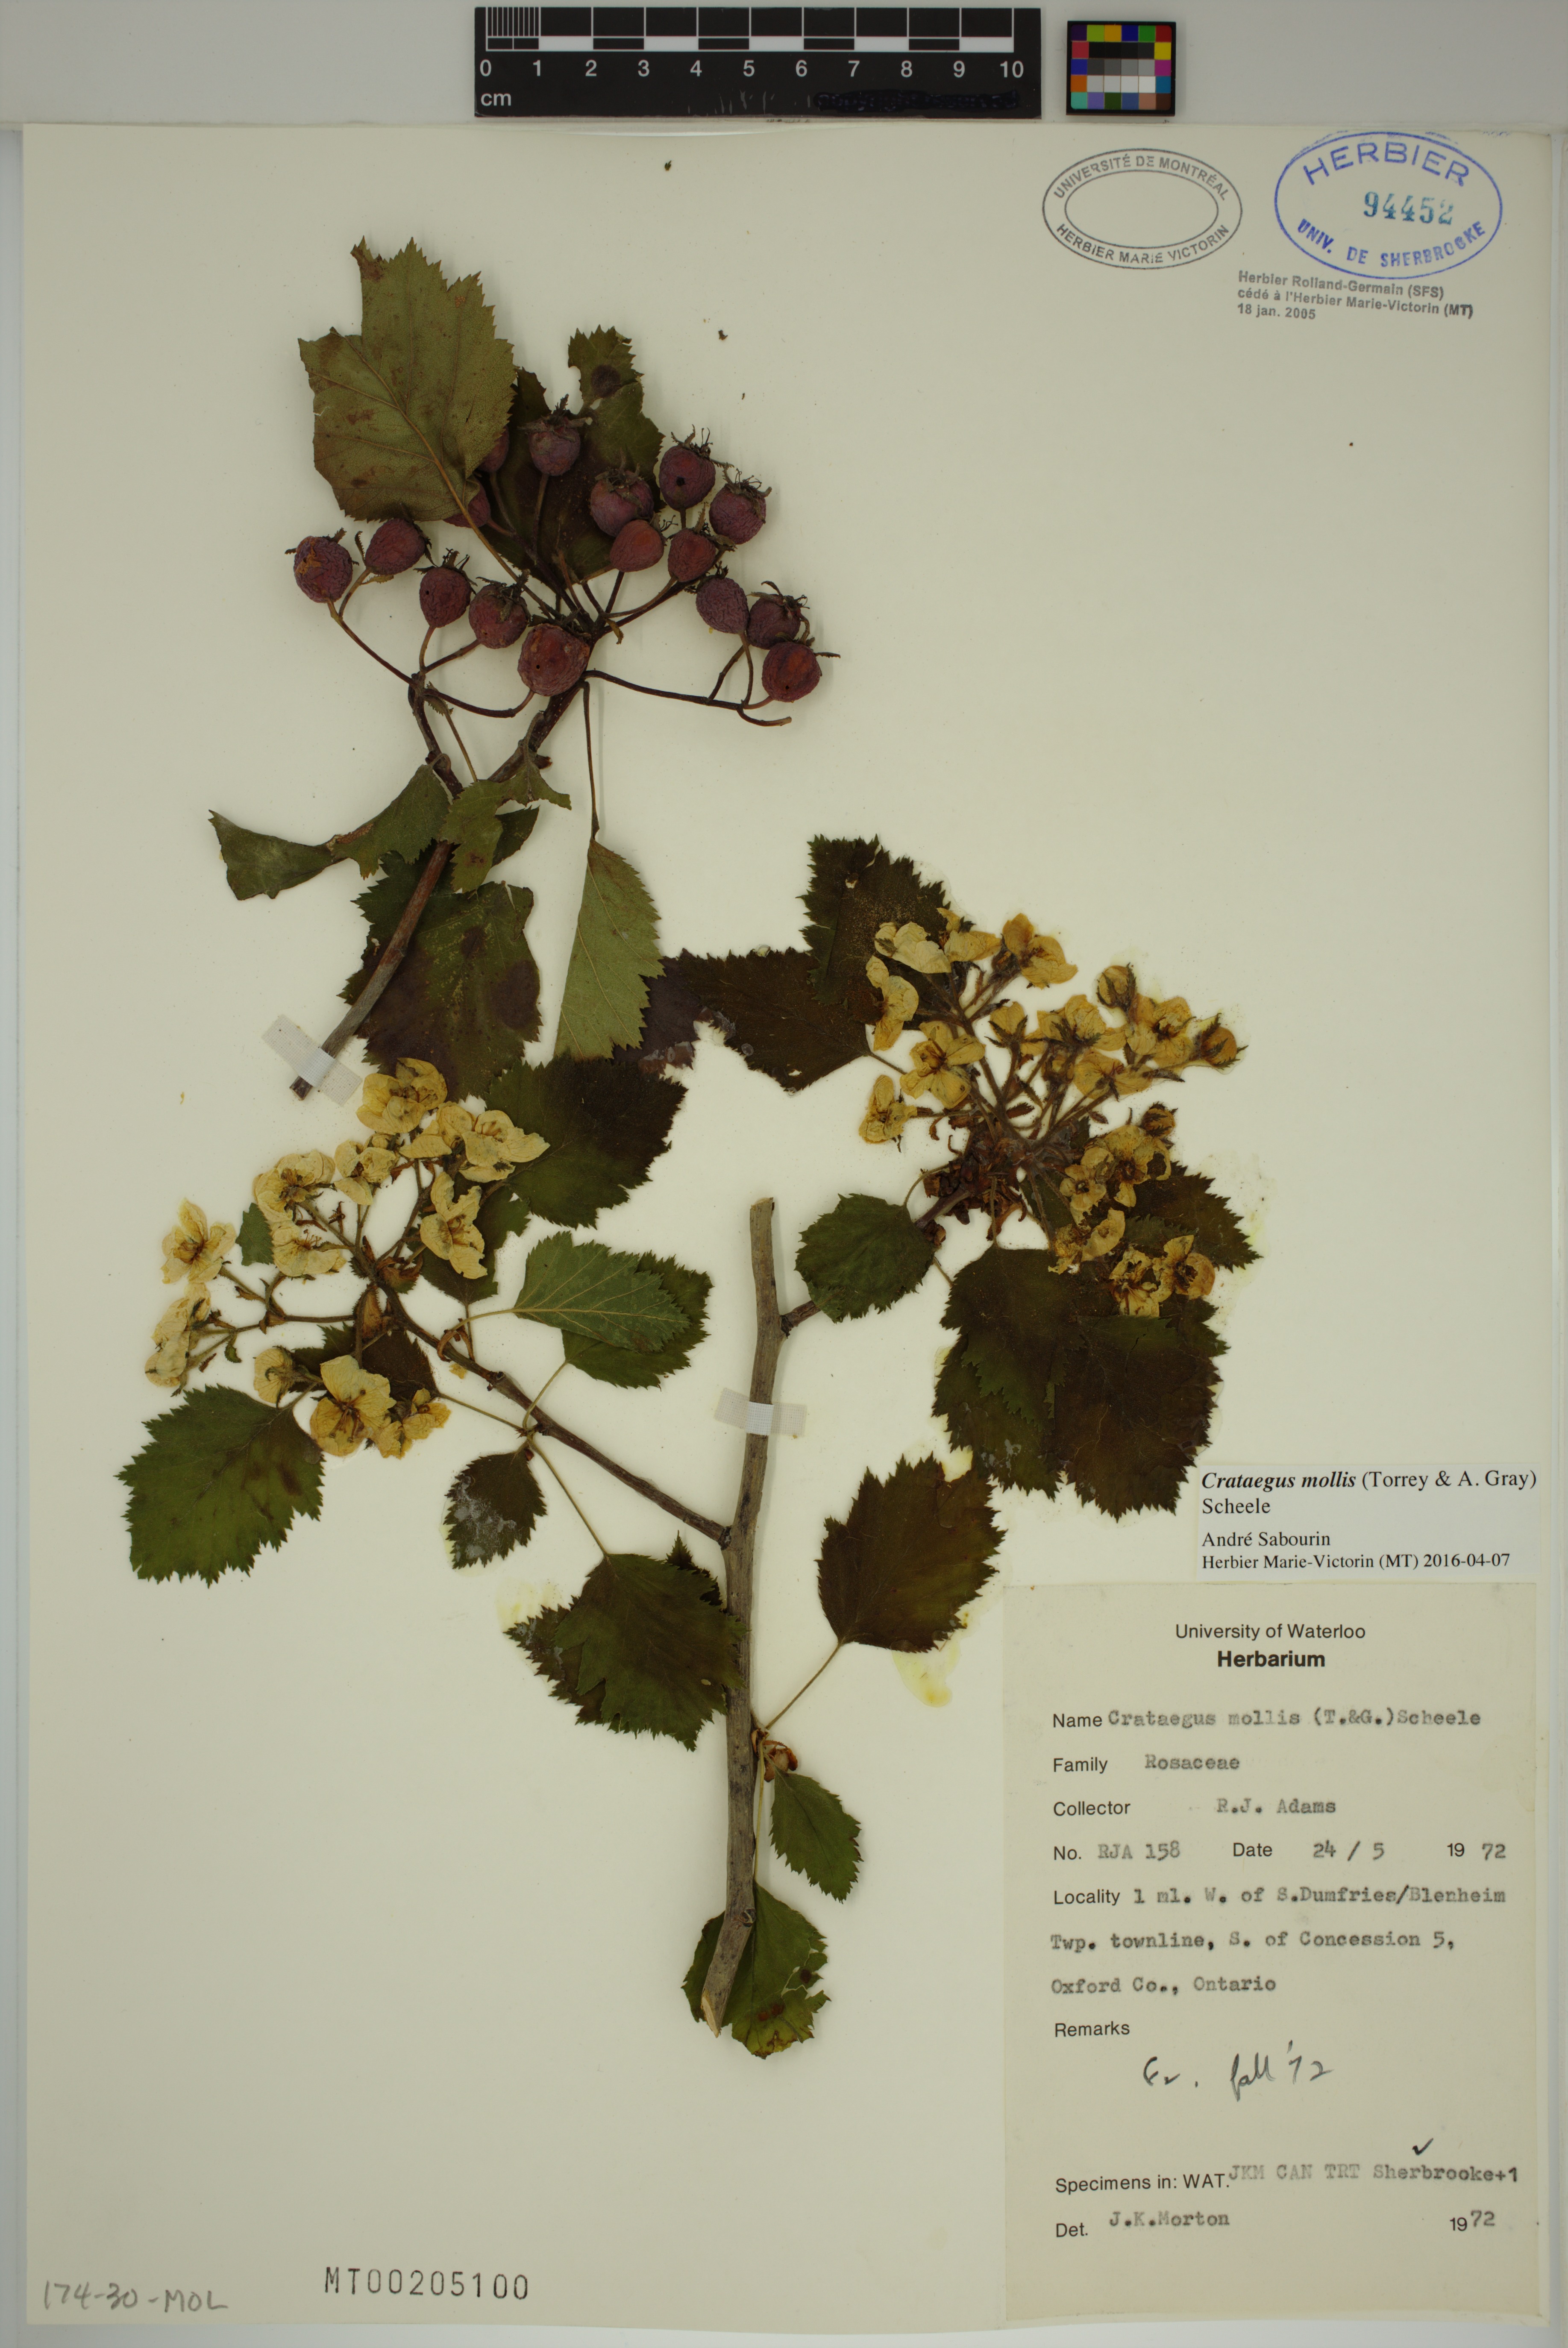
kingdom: Plantae
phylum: Tracheophyta
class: Magnoliopsida
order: Rosales
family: Rosaceae
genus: Crataegus
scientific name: Crataegus mollis
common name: Downy hawthorn
